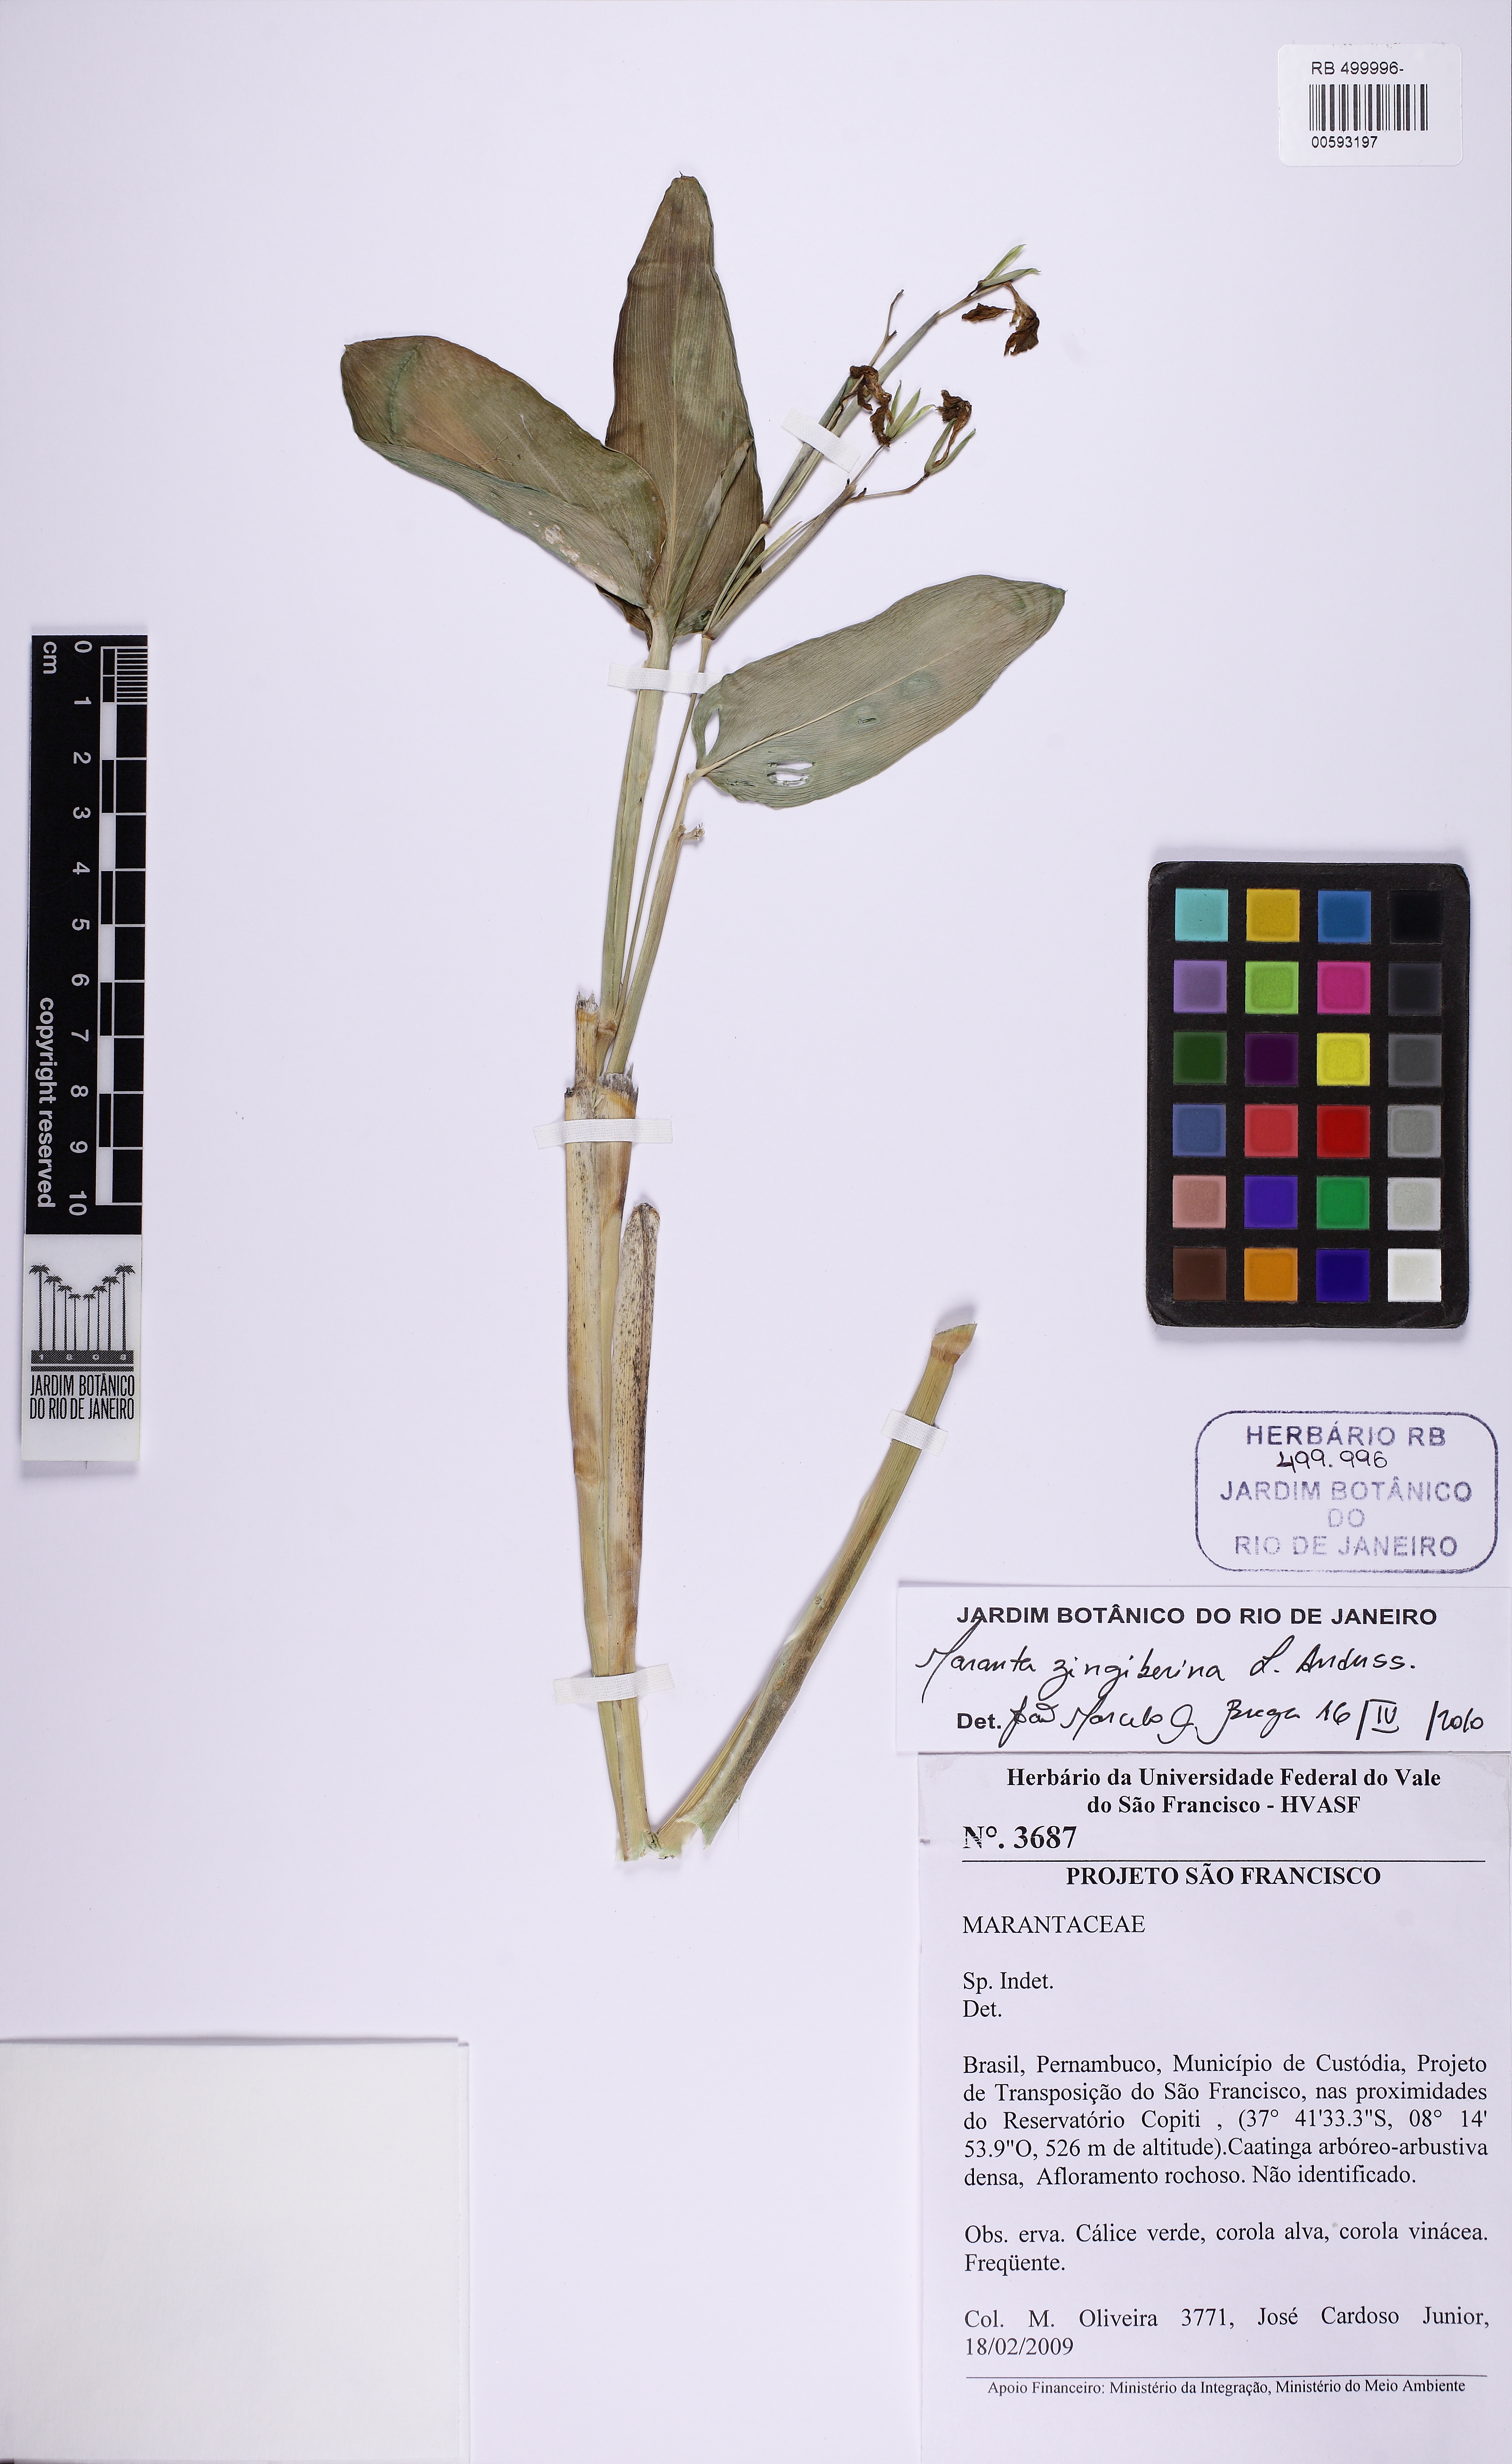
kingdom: Plantae
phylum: Tracheophyta
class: Liliopsida
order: Zingiberales
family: Marantaceae
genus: Maranta
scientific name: Maranta zingiberina
